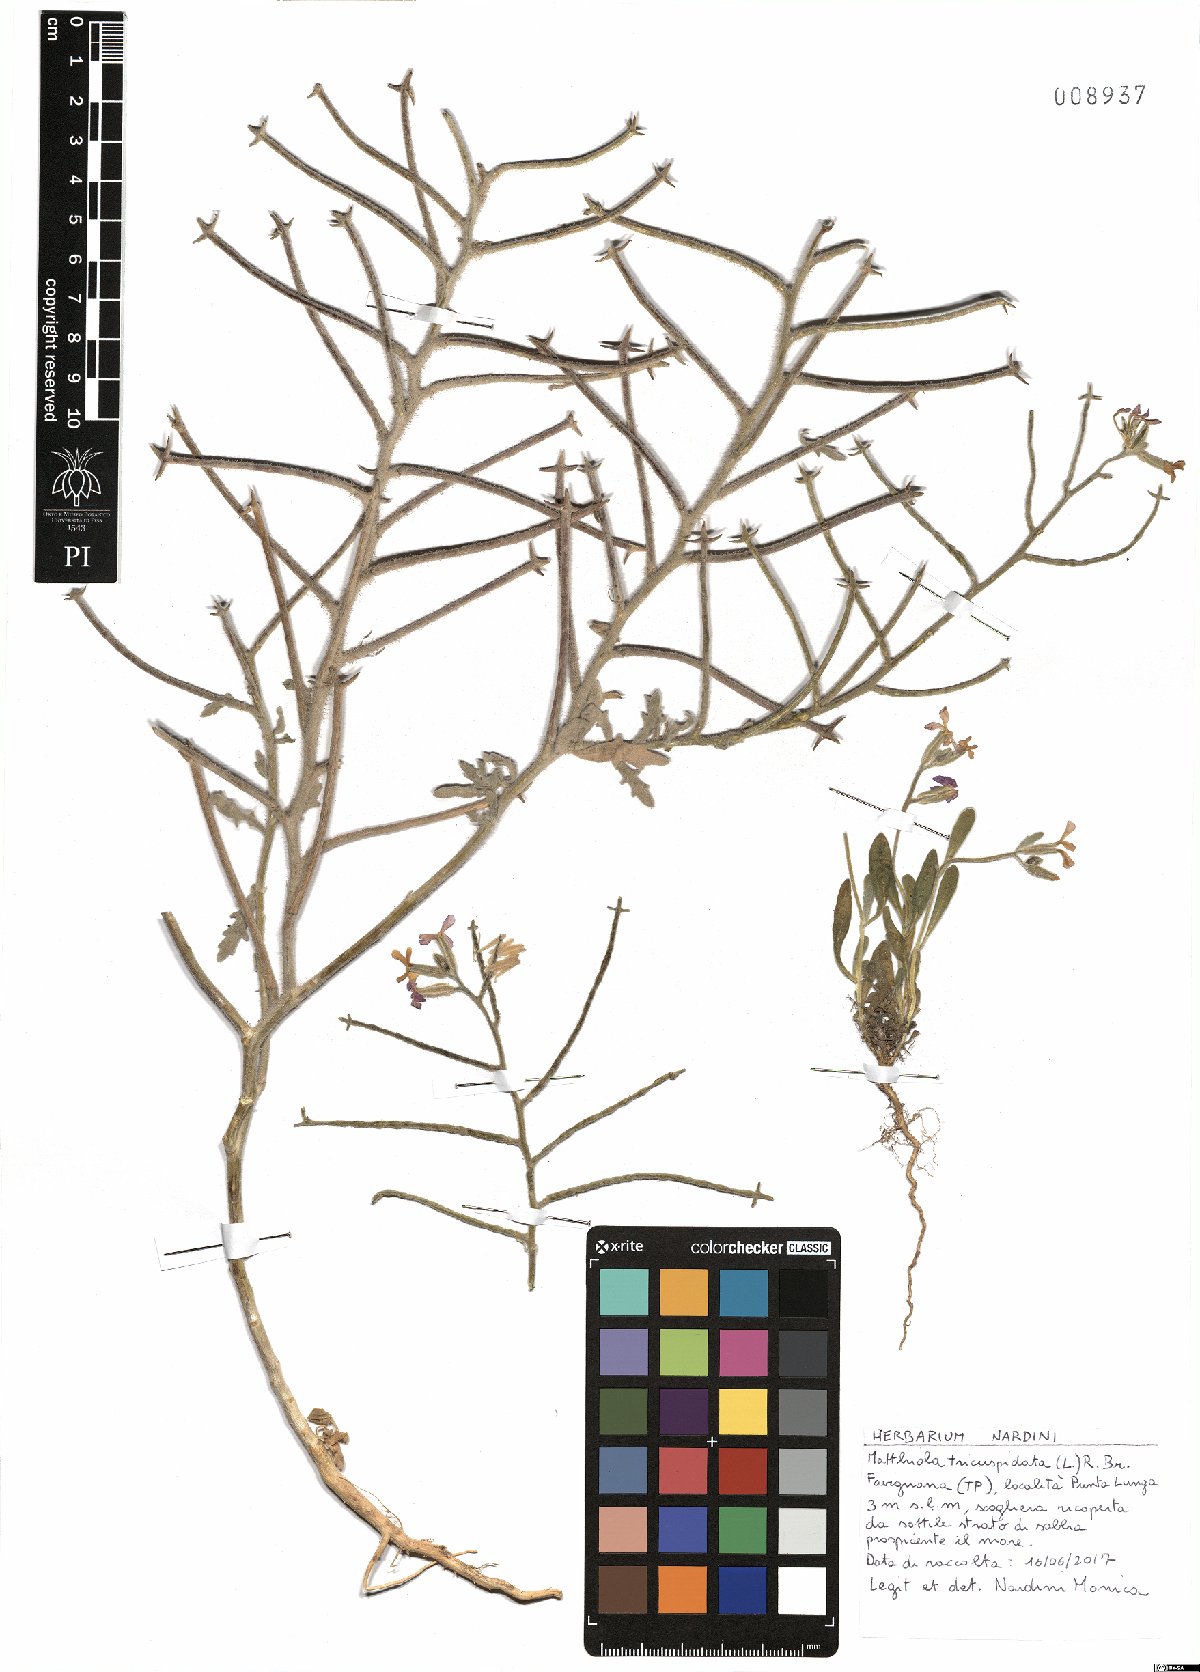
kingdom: Plantae
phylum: Tracheophyta
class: Magnoliopsida
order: Brassicales
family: Brassicaceae
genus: Matthiola
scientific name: Matthiola tricuspidata
